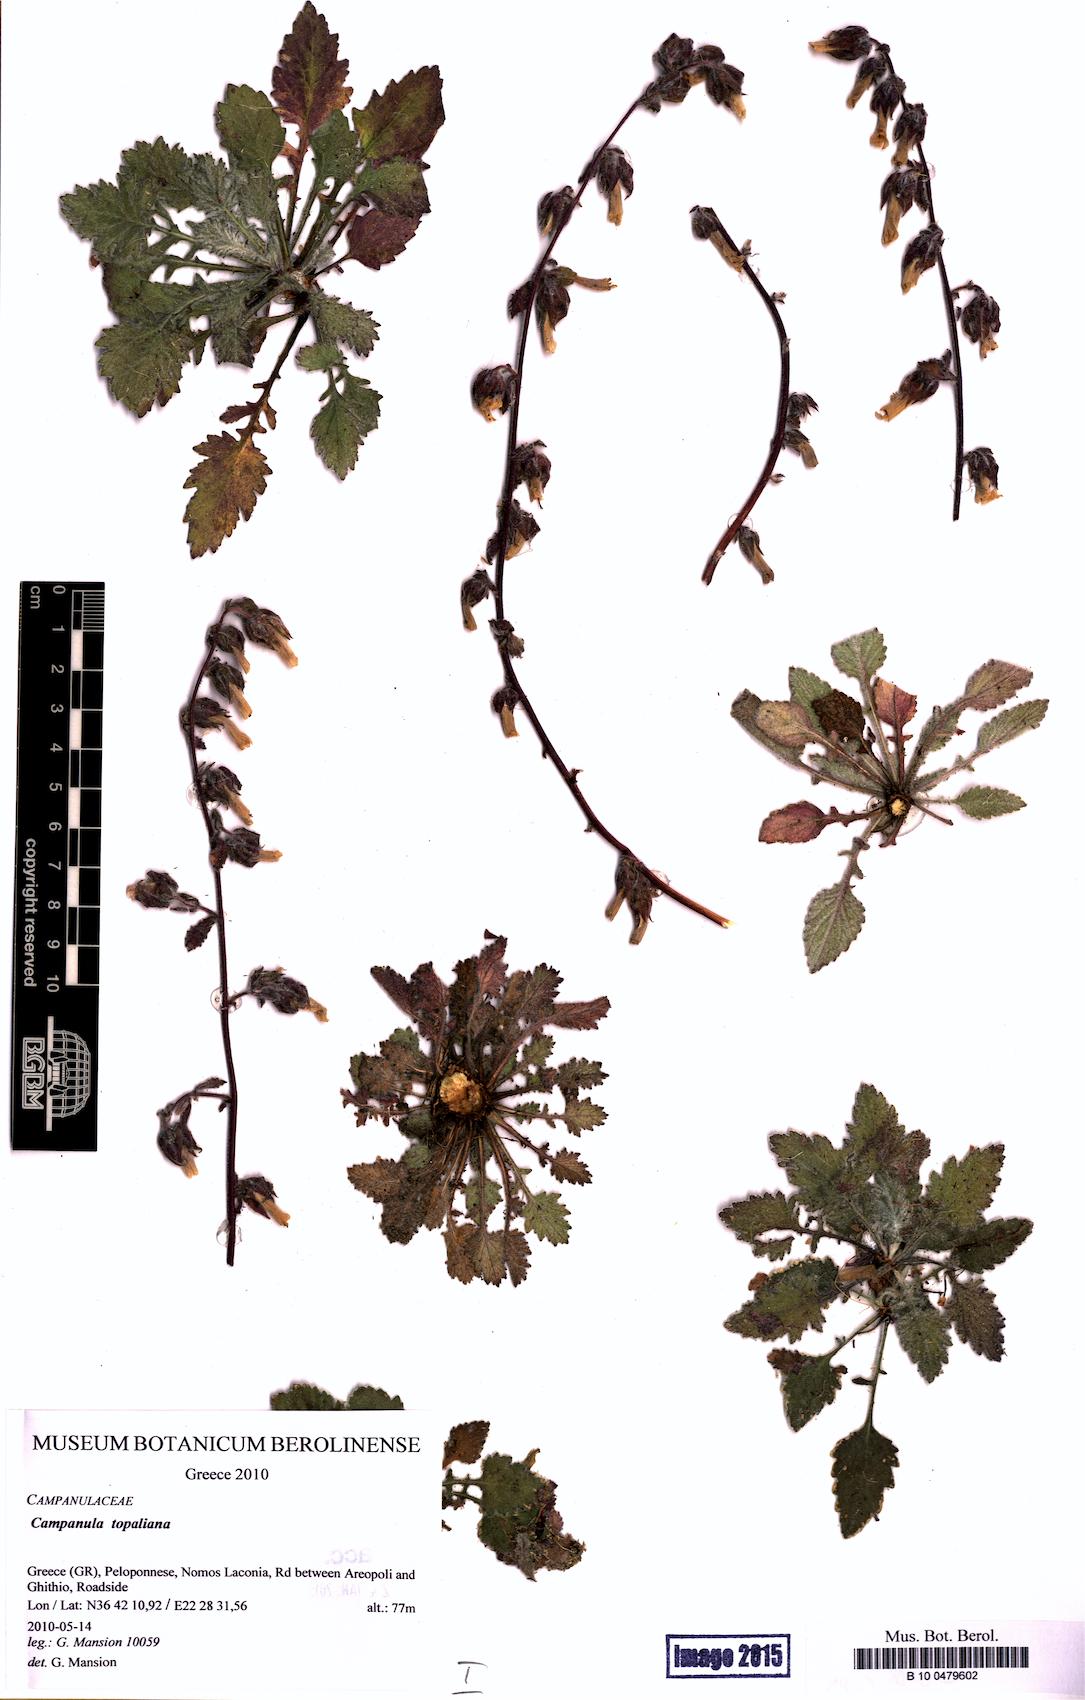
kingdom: Plantae
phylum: Tracheophyta
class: Magnoliopsida
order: Asterales
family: Campanulaceae
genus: Campanula
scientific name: Campanula topaliana
